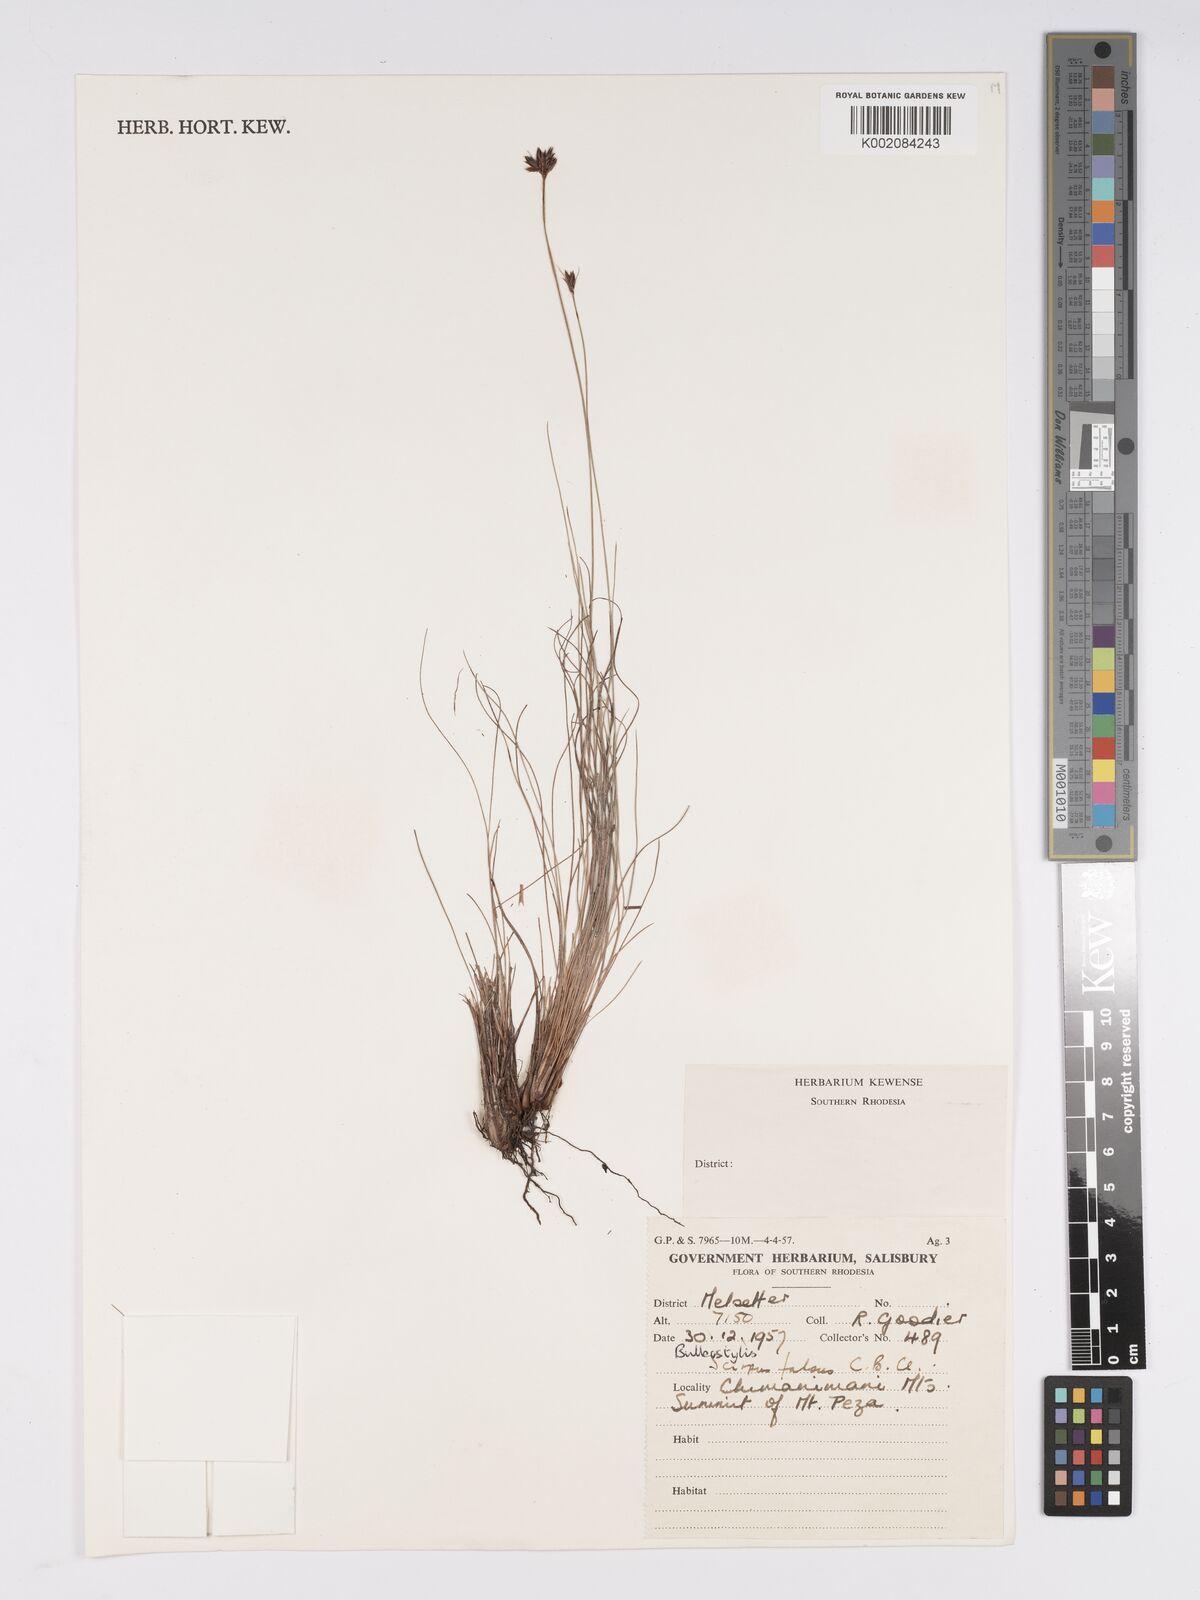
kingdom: Plantae
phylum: Tracheophyta
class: Liliopsida
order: Poales
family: Cyperaceae
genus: Bulbostylis
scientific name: Bulbostylis
